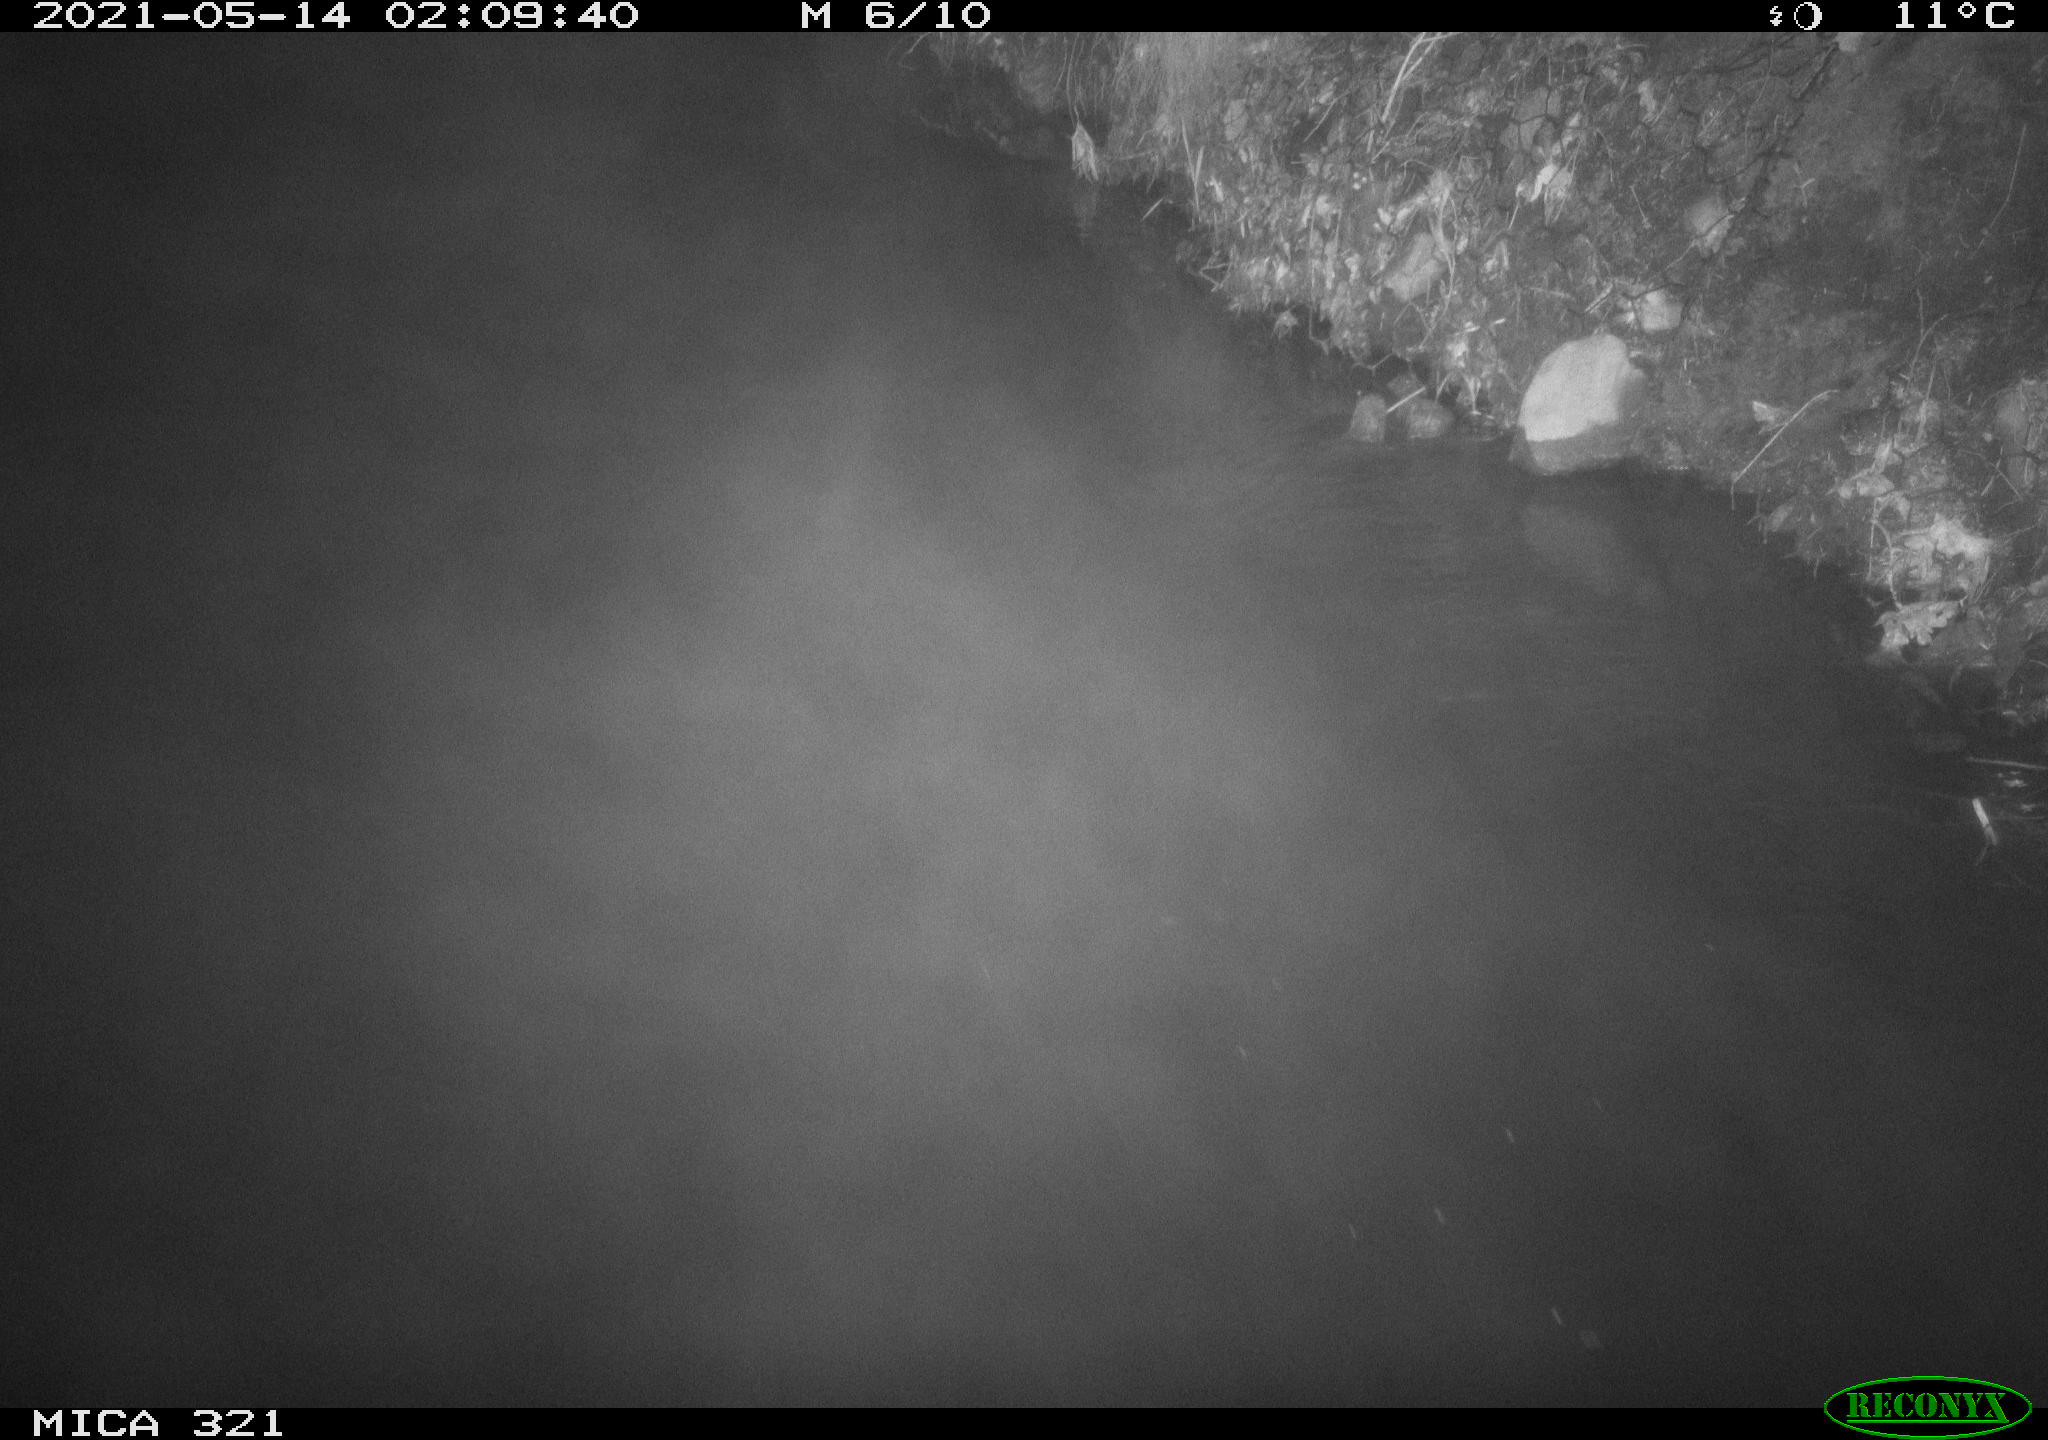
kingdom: Animalia
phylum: Chordata
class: Aves
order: Anseriformes
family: Anatidae
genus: Anas
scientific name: Anas platyrhynchos
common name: Mallard
